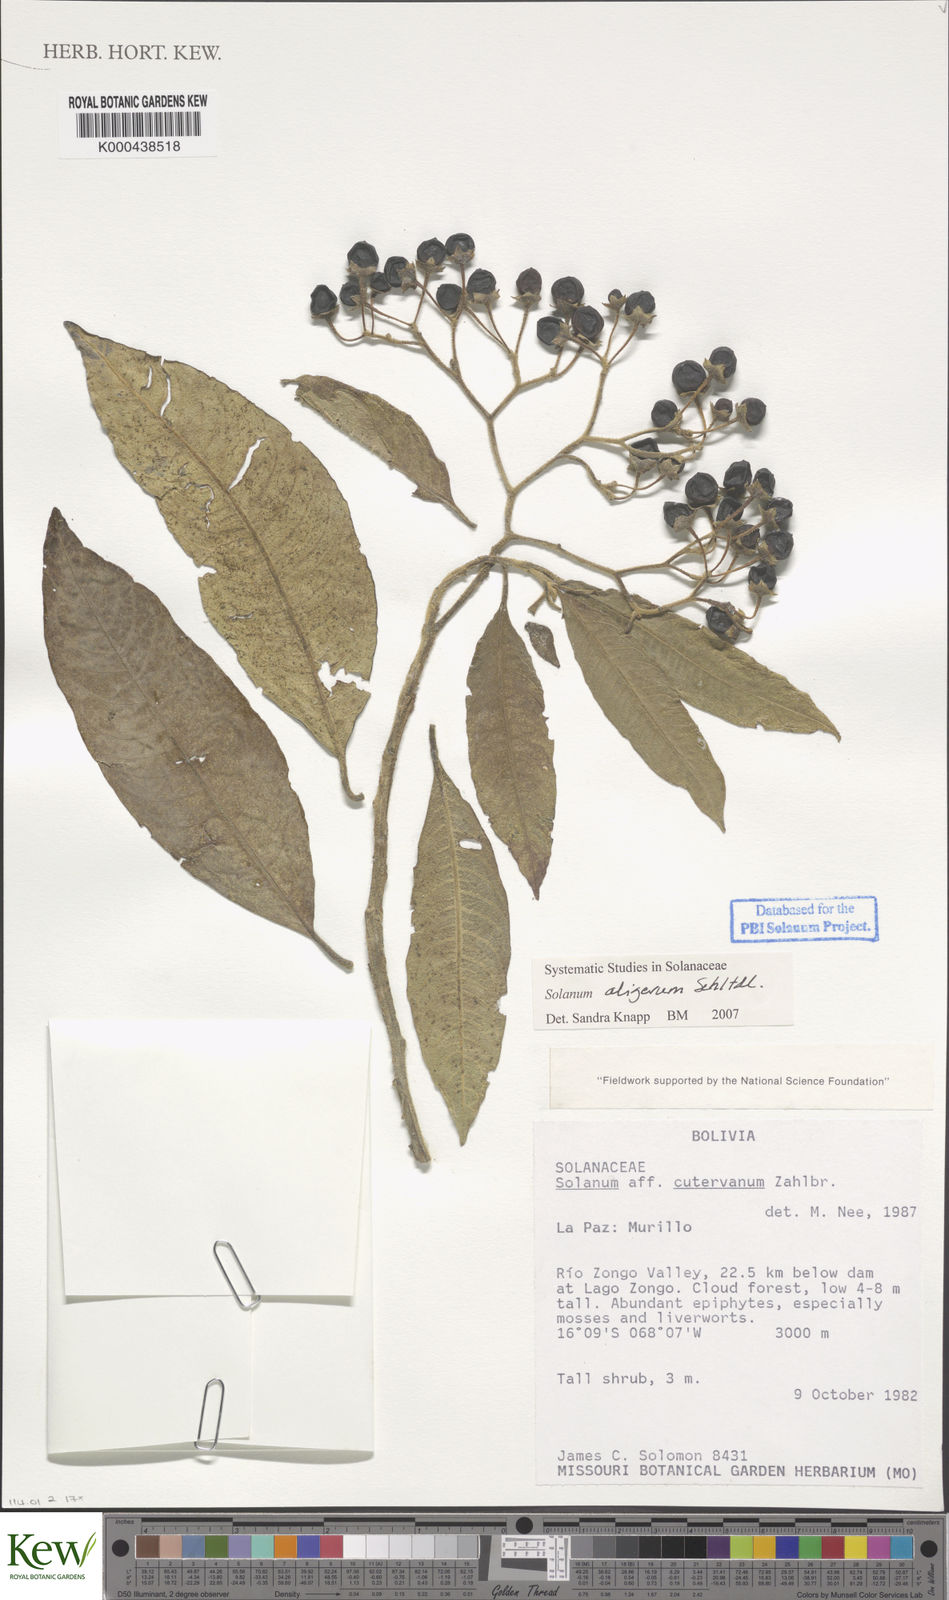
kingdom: Plantae
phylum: Tracheophyta
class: Magnoliopsida
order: Solanales
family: Solanaceae
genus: Solanum
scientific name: Solanum aligerum
